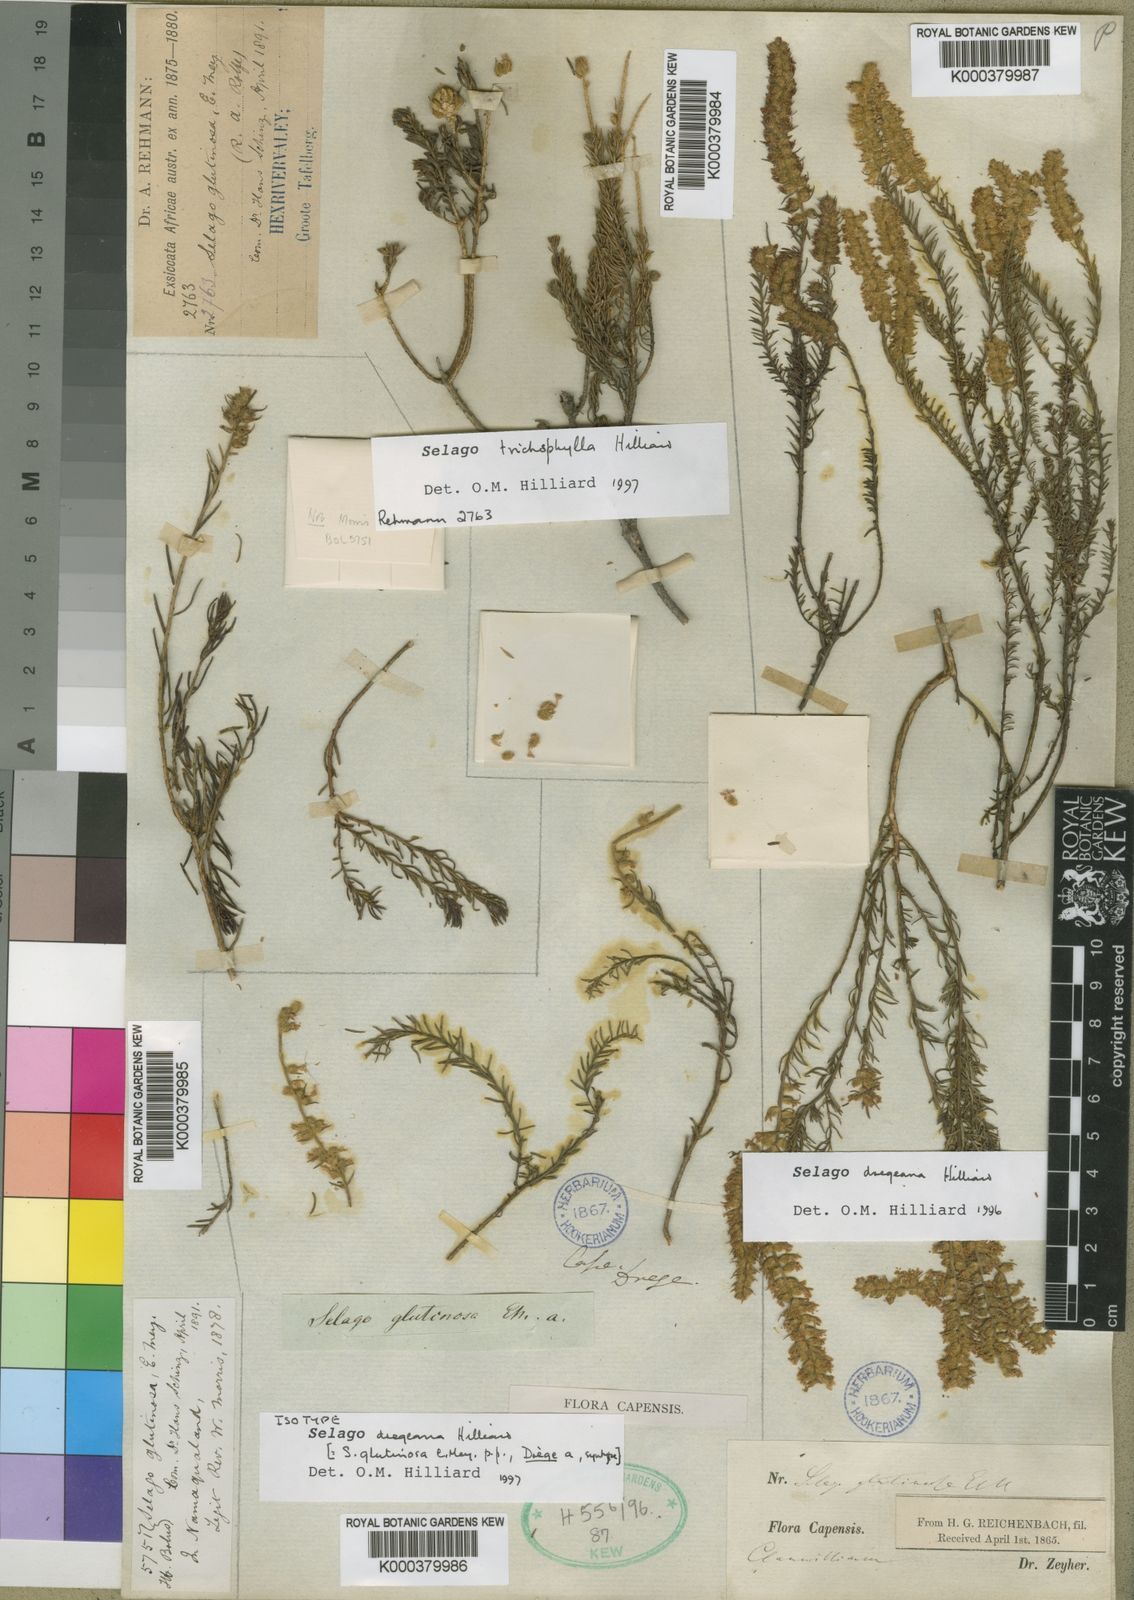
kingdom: Plantae
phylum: Tracheophyta
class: Magnoliopsida
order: Lamiales
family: Scrophulariaceae
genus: Selago
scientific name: Selago glutinosa
